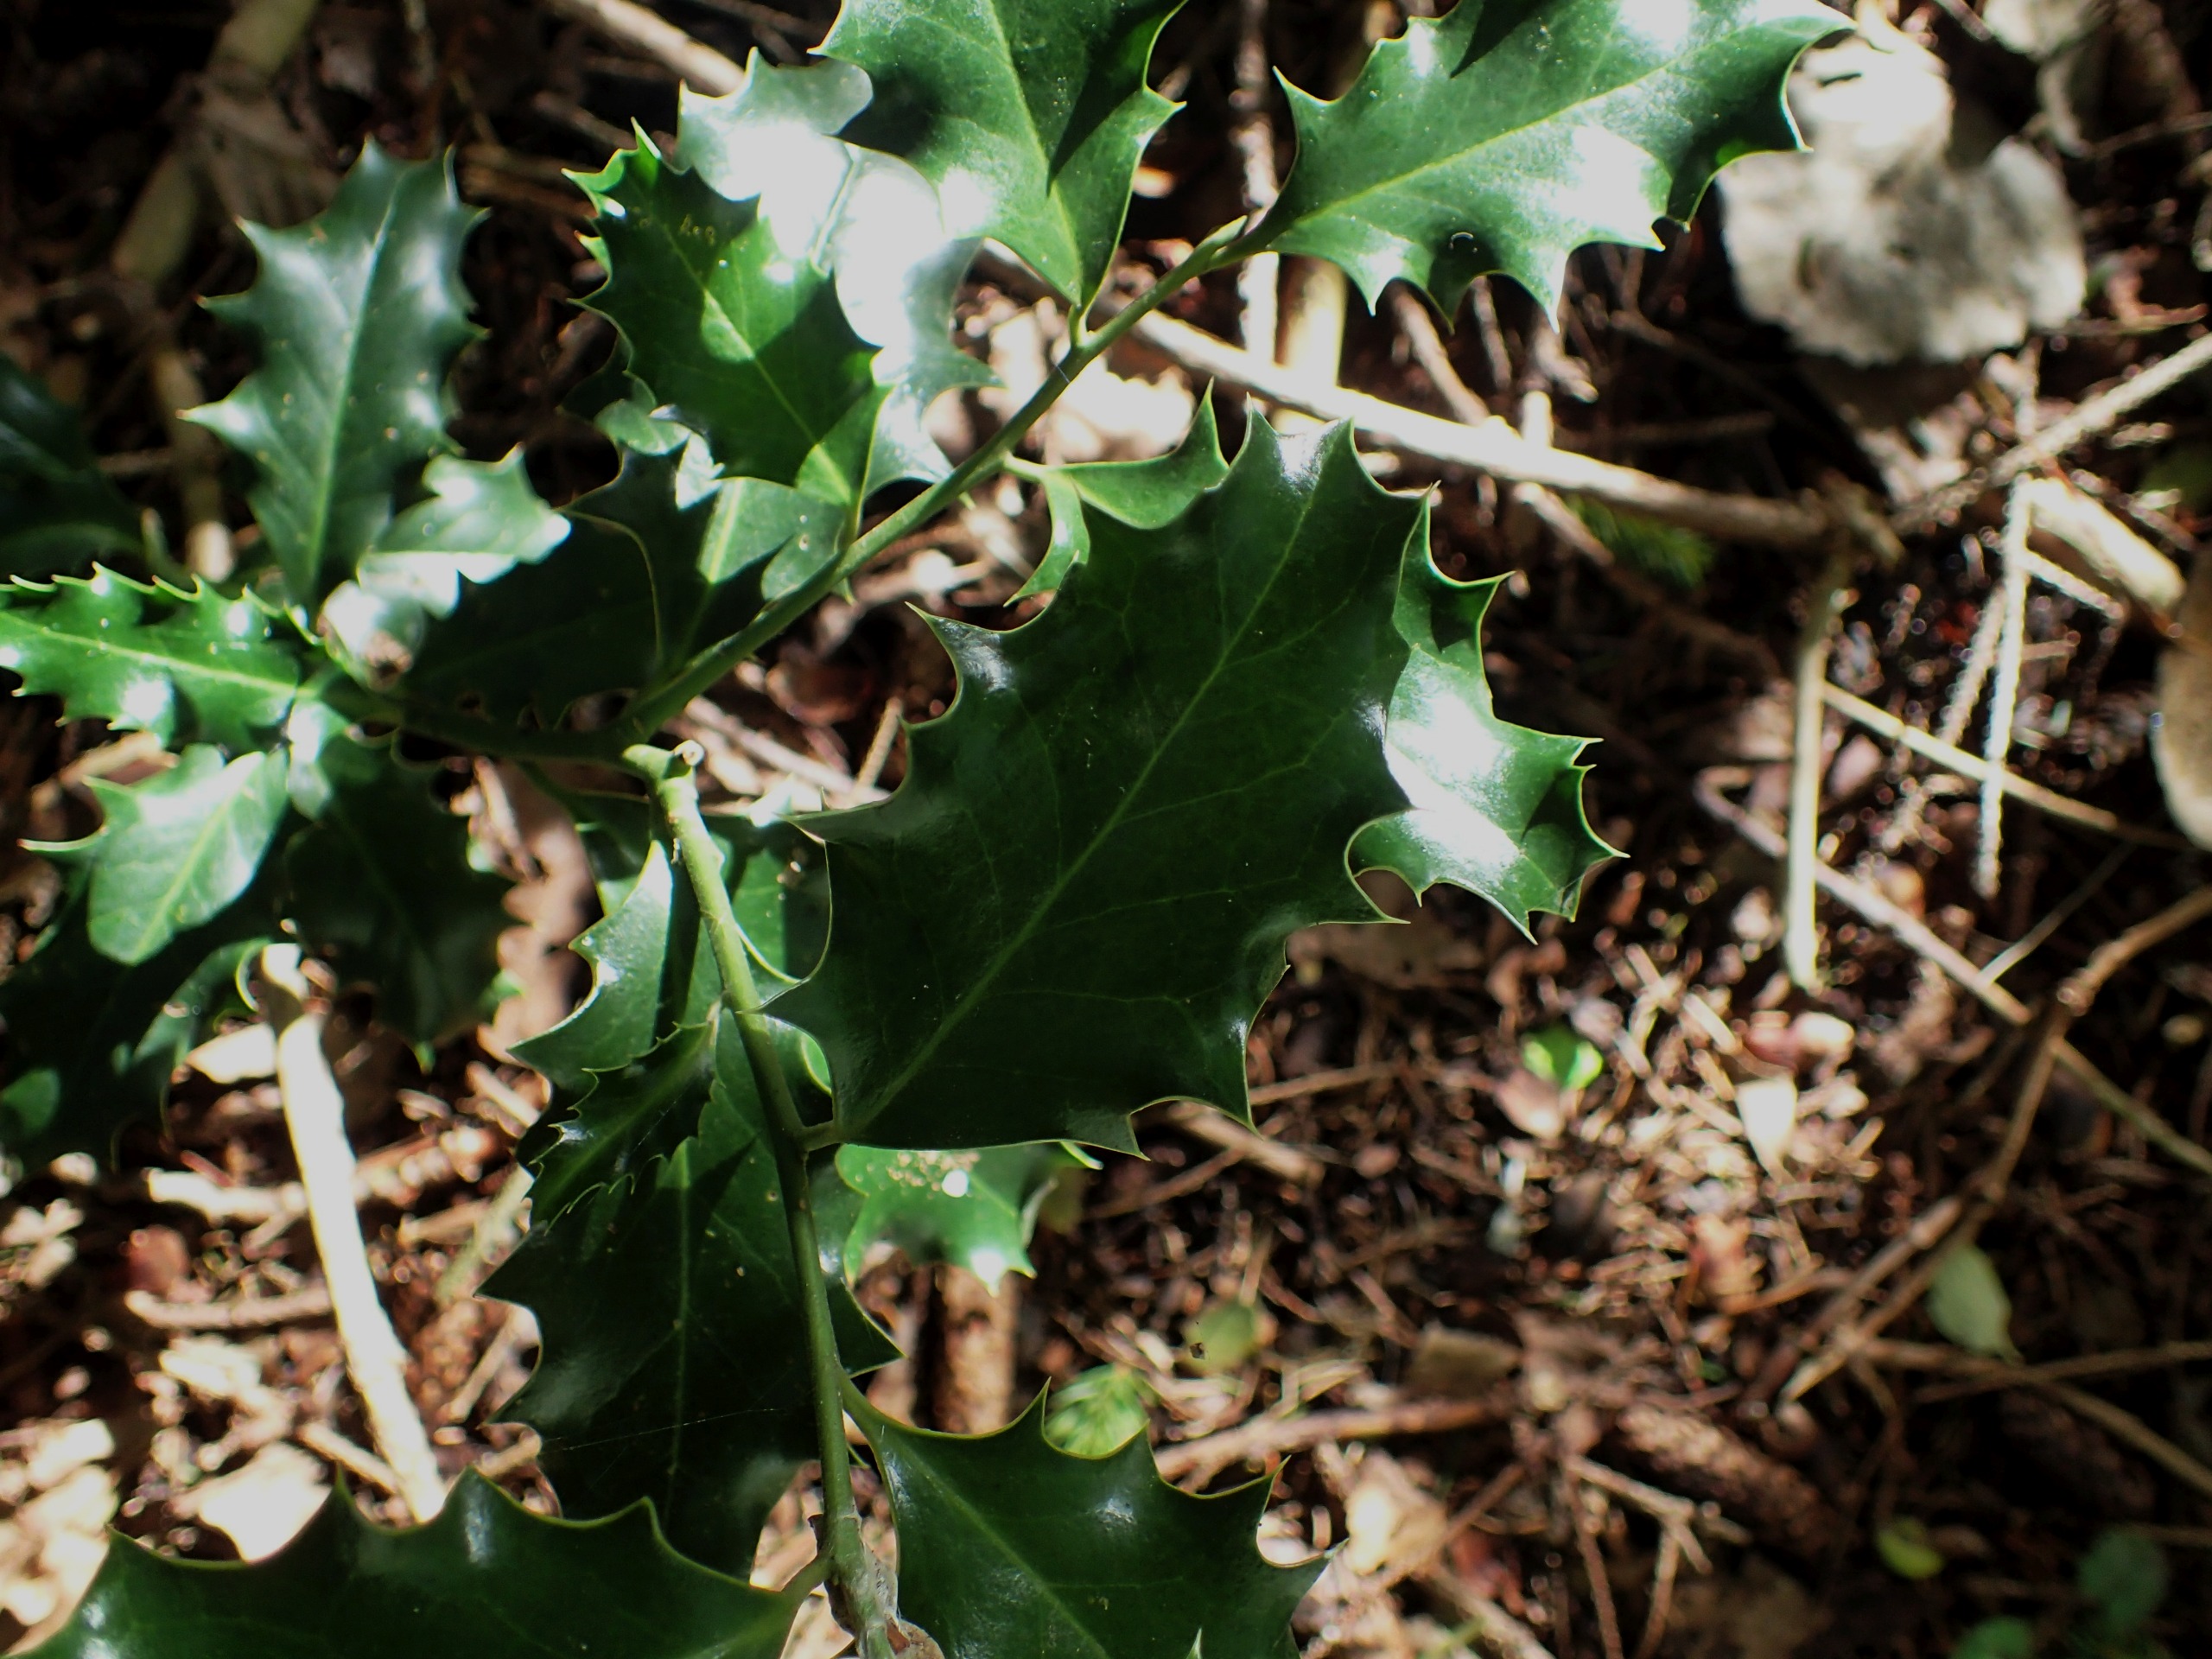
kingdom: Plantae
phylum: Tracheophyta
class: Magnoliopsida
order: Aquifoliales
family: Aquifoliaceae
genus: Ilex
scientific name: Ilex aquifolium
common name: Kristtorn
